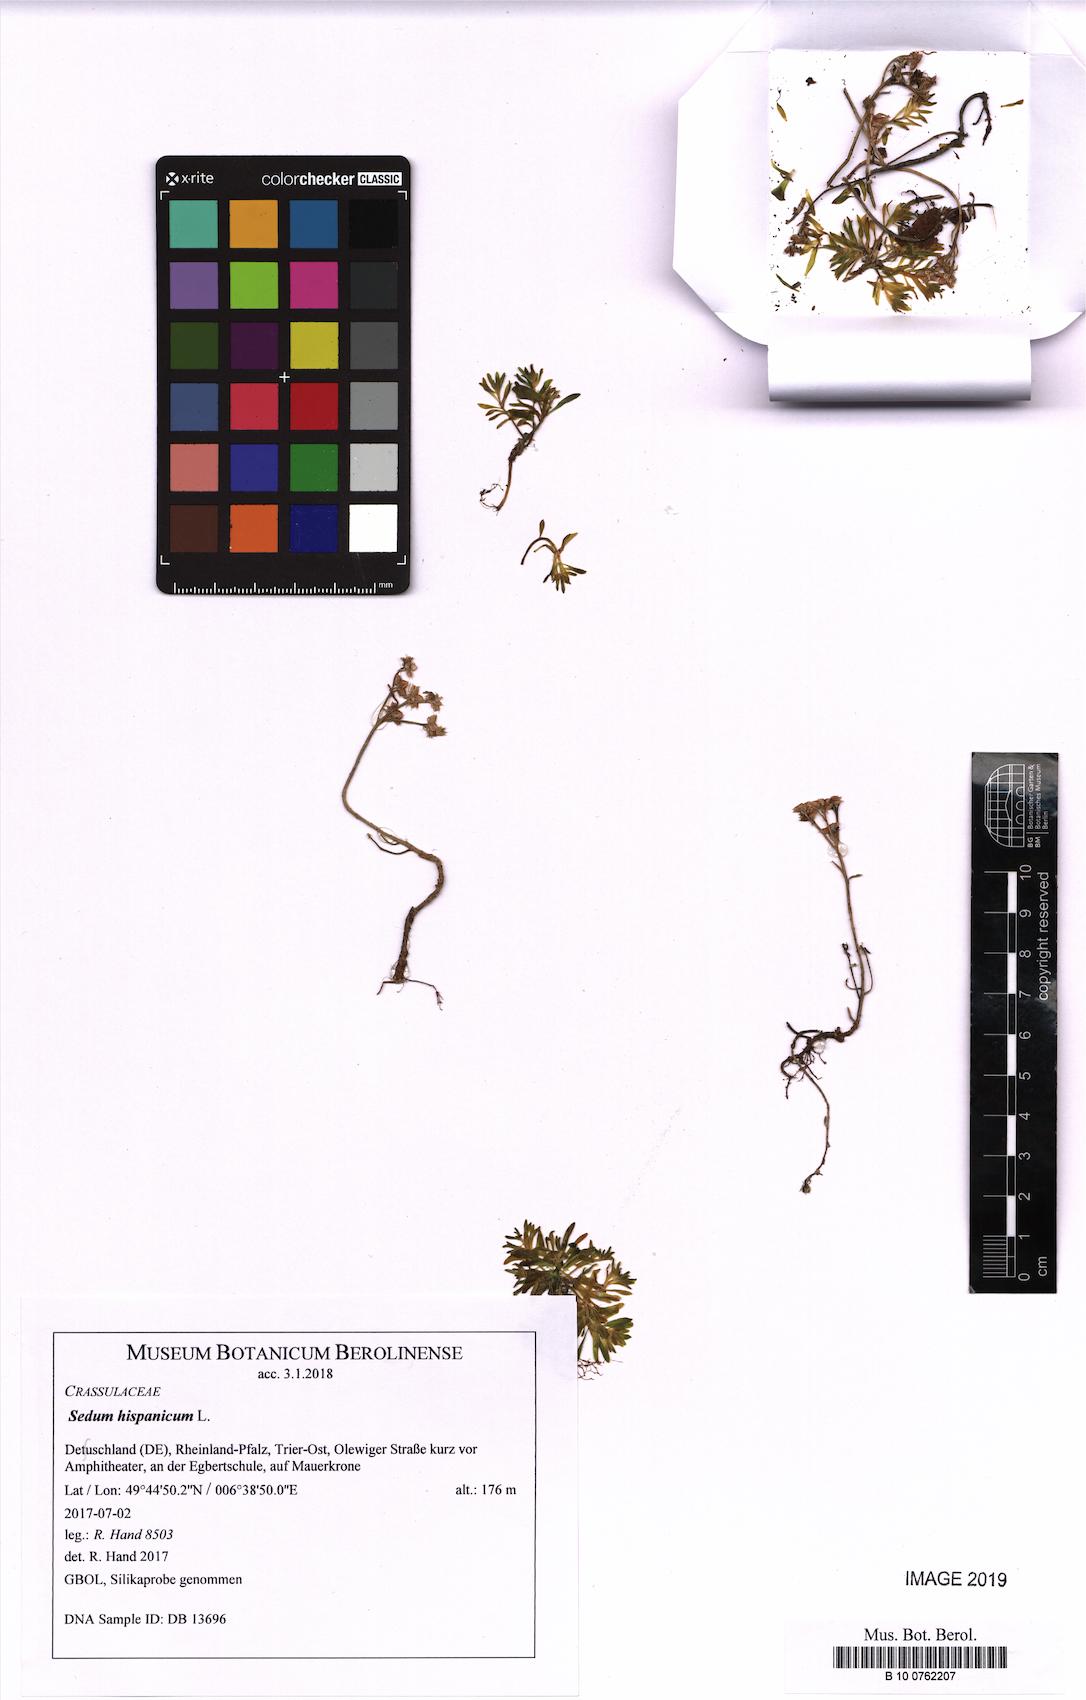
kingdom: Plantae
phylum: Tracheophyta
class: Magnoliopsida
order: Saxifragales
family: Crassulaceae
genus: Sedum
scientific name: Sedum hispanicum
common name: Spanish stonecrop
